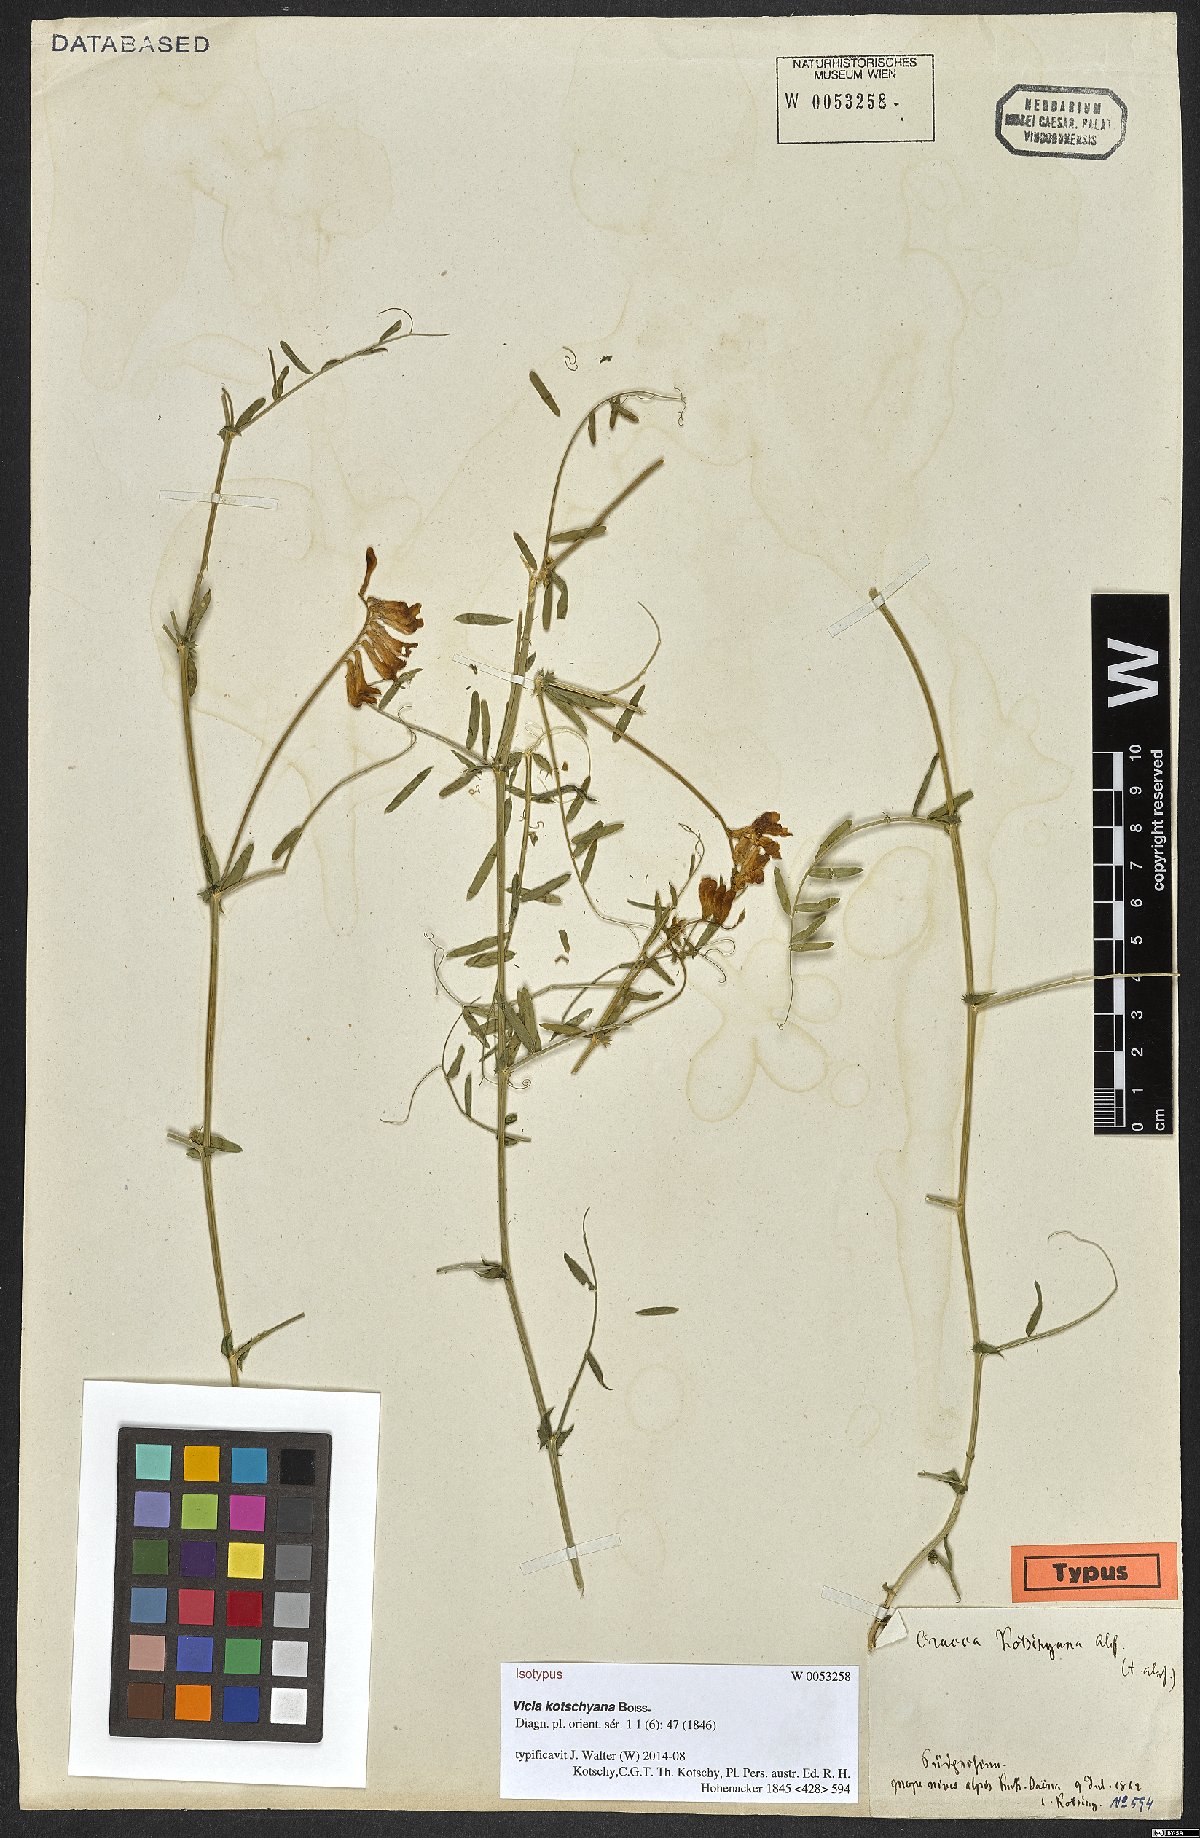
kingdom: Plantae
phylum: Tracheophyta
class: Magnoliopsida
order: Fabales
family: Fabaceae
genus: Vicia
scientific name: Vicia kotschyana
